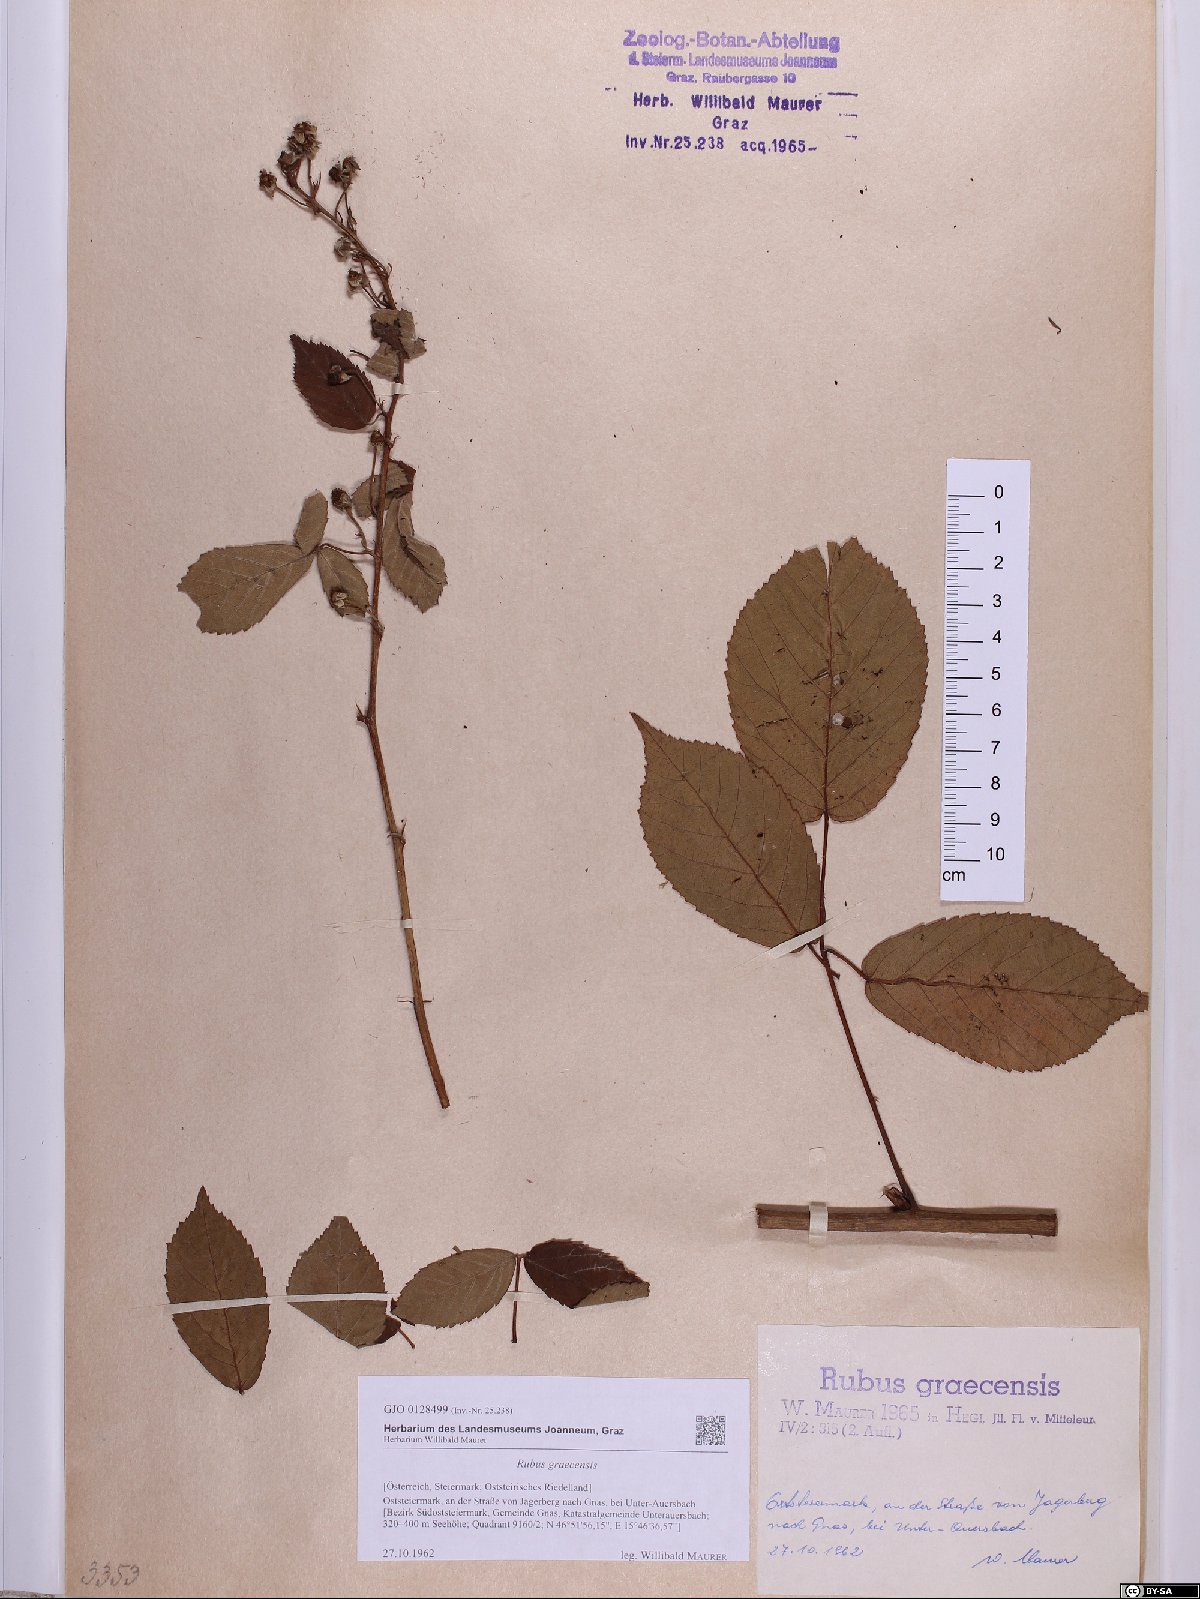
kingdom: Plantae
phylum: Tracheophyta
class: Magnoliopsida
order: Rosales
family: Rosaceae
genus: Rubus
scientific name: Rubus graecensis
